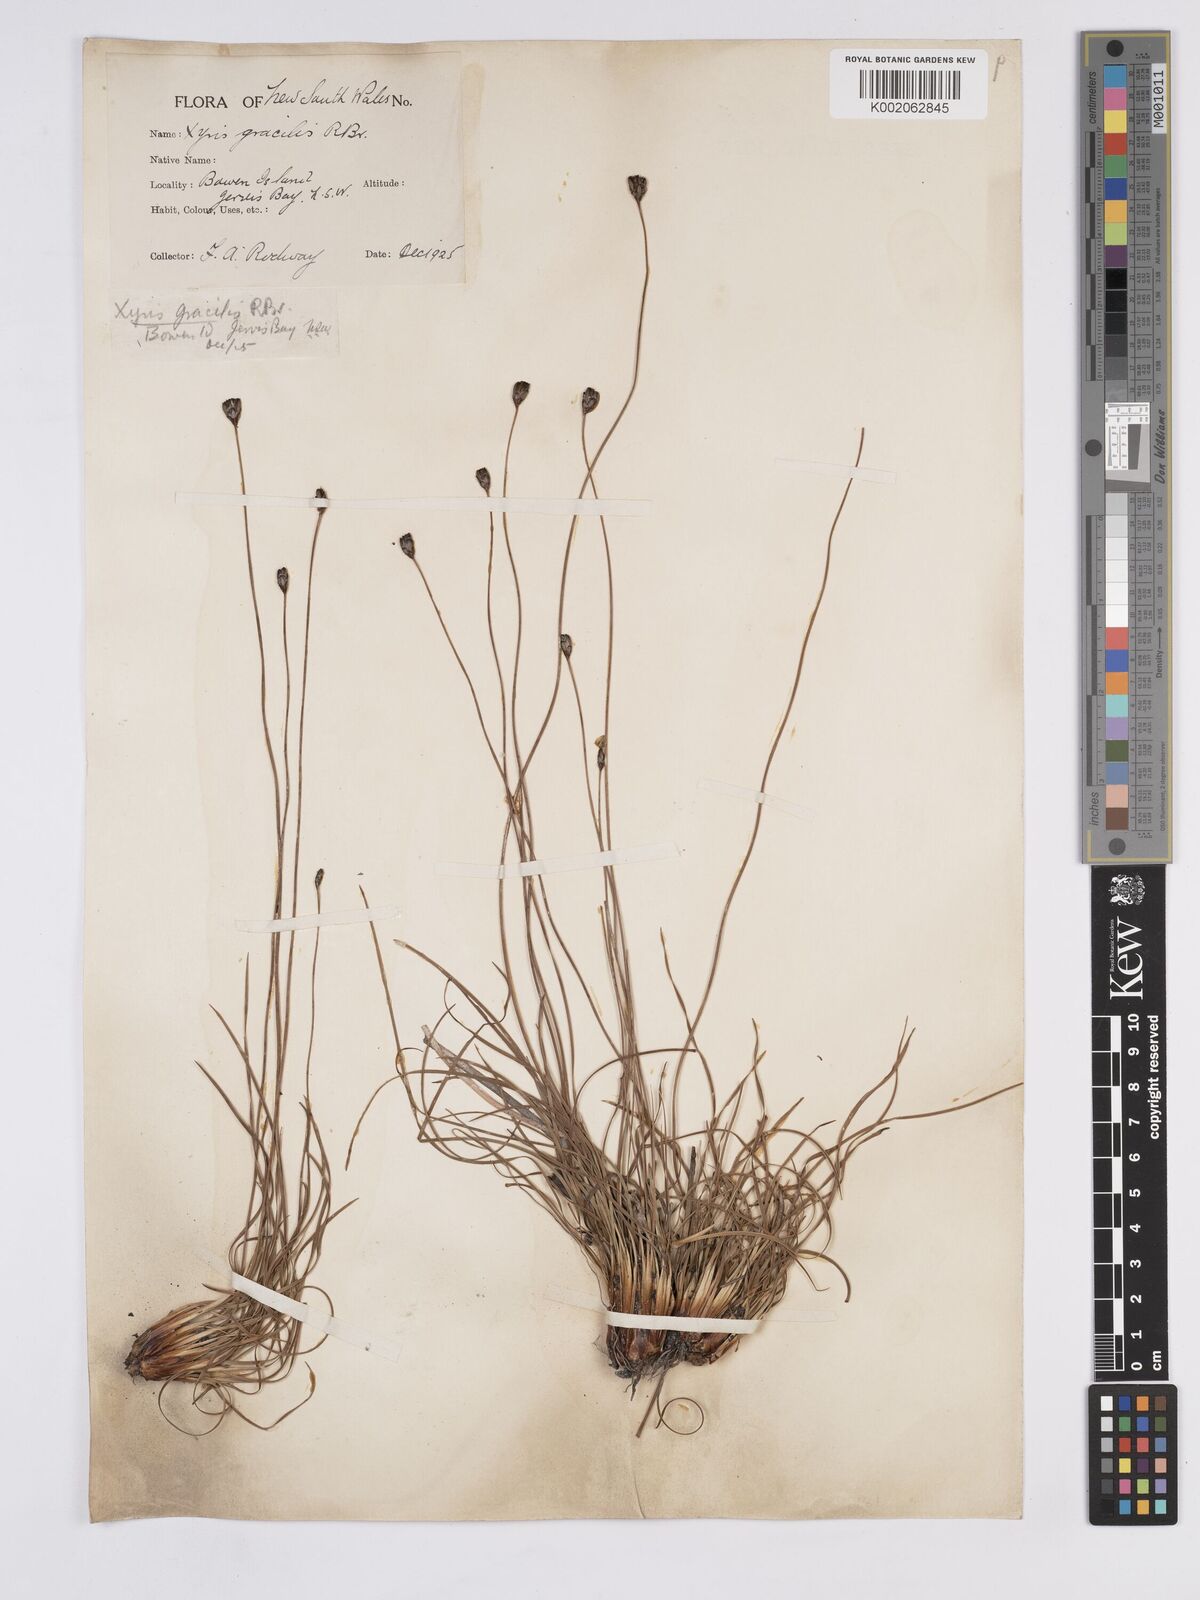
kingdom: Plantae
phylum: Tracheophyta
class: Liliopsida
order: Poales
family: Xyridaceae
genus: Xyris
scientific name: Xyris gracilis
